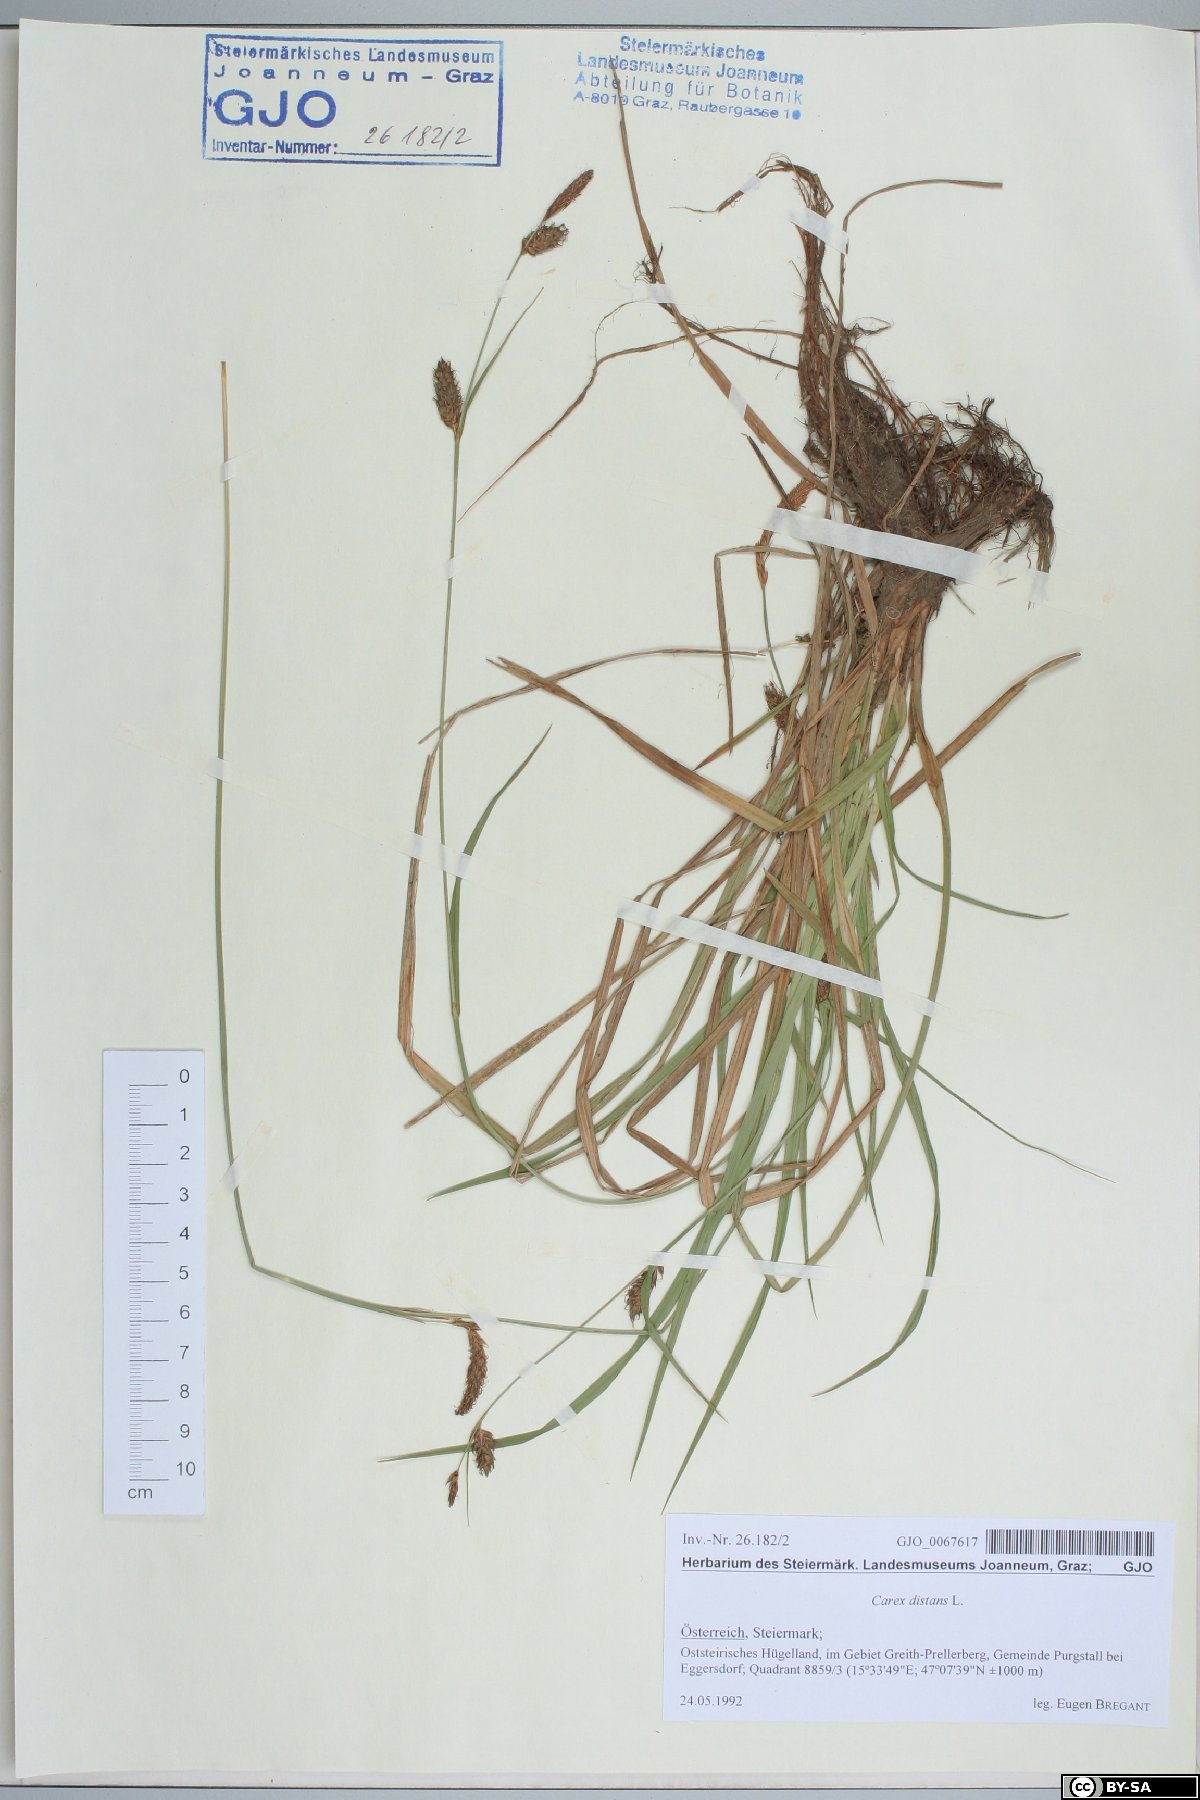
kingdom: Plantae
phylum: Tracheophyta
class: Liliopsida
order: Poales
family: Cyperaceae
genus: Carex
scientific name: Carex distans
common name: Distant sedge
